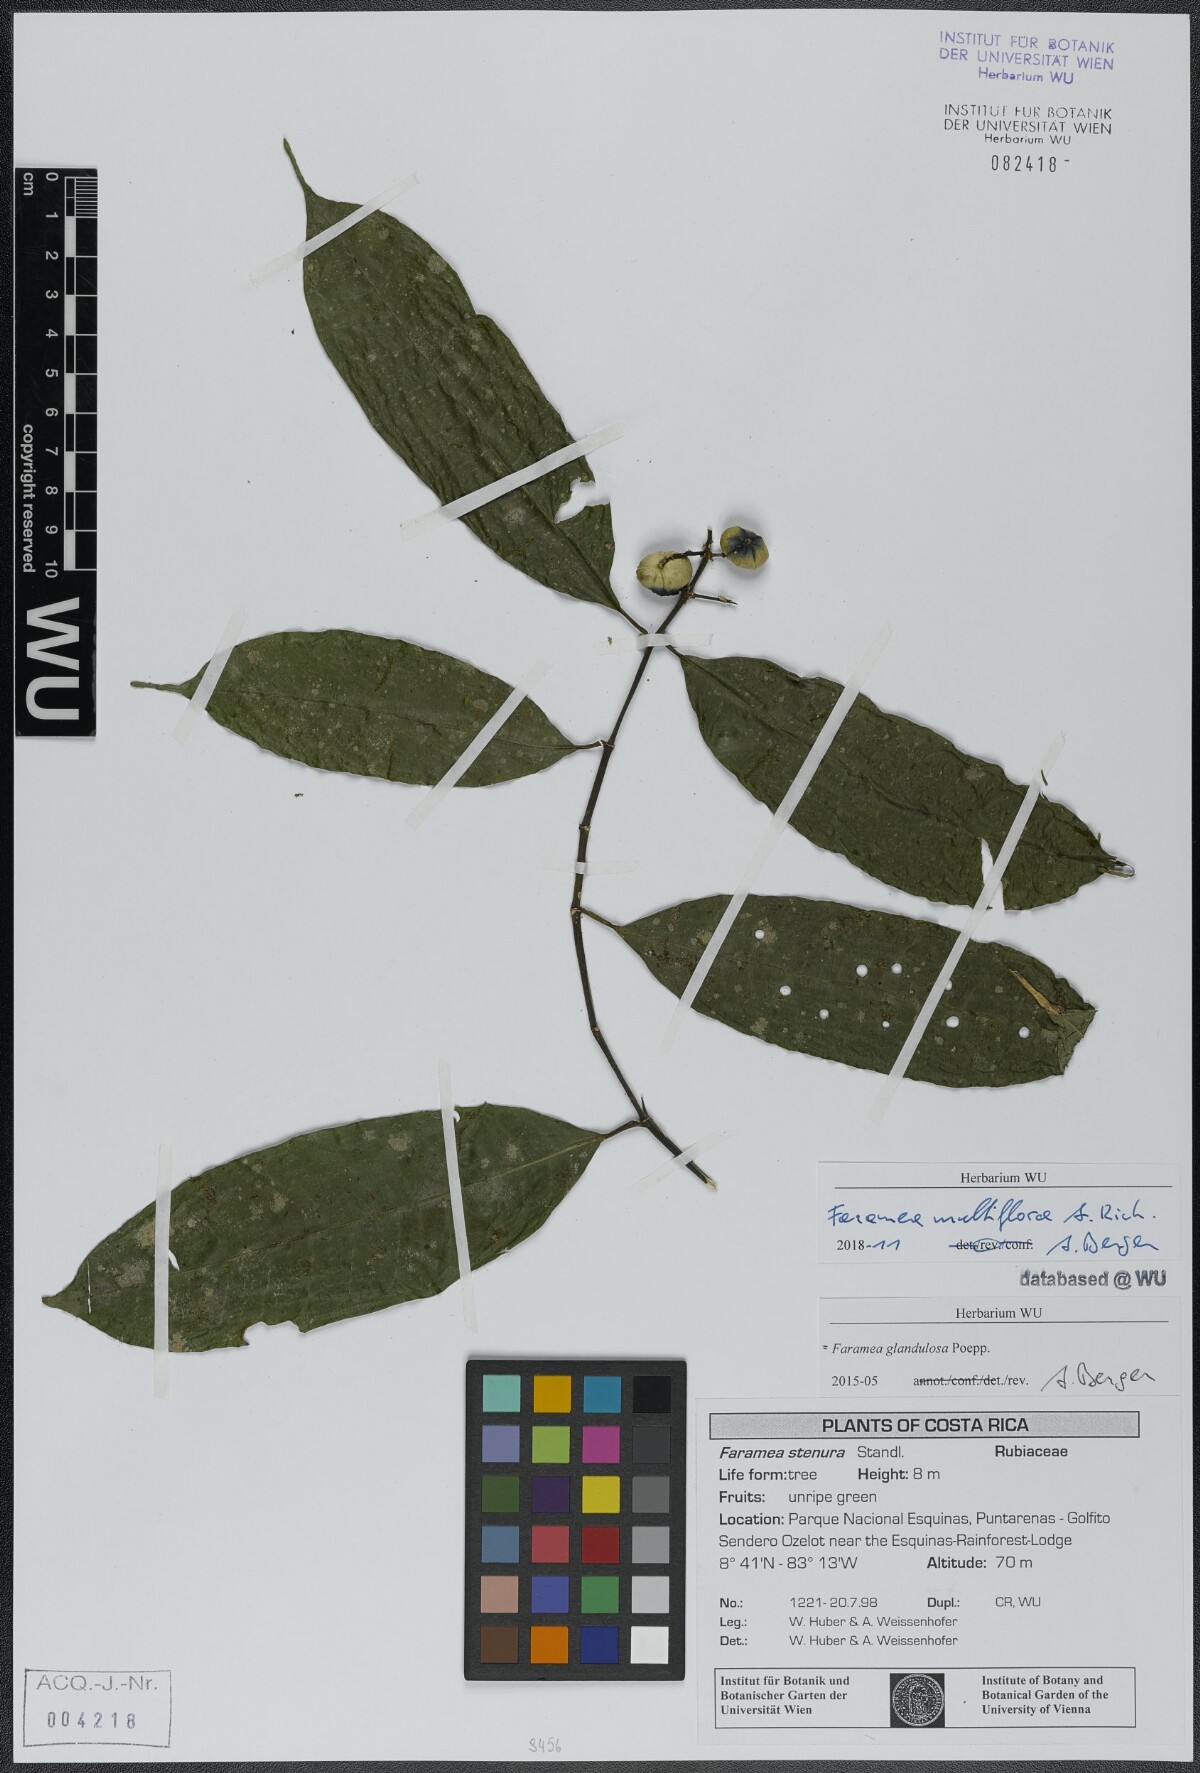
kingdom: Plantae
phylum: Tracheophyta
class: Magnoliopsida
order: Gentianales
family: Rubiaceae
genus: Faramea
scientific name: Faramea multiflora
